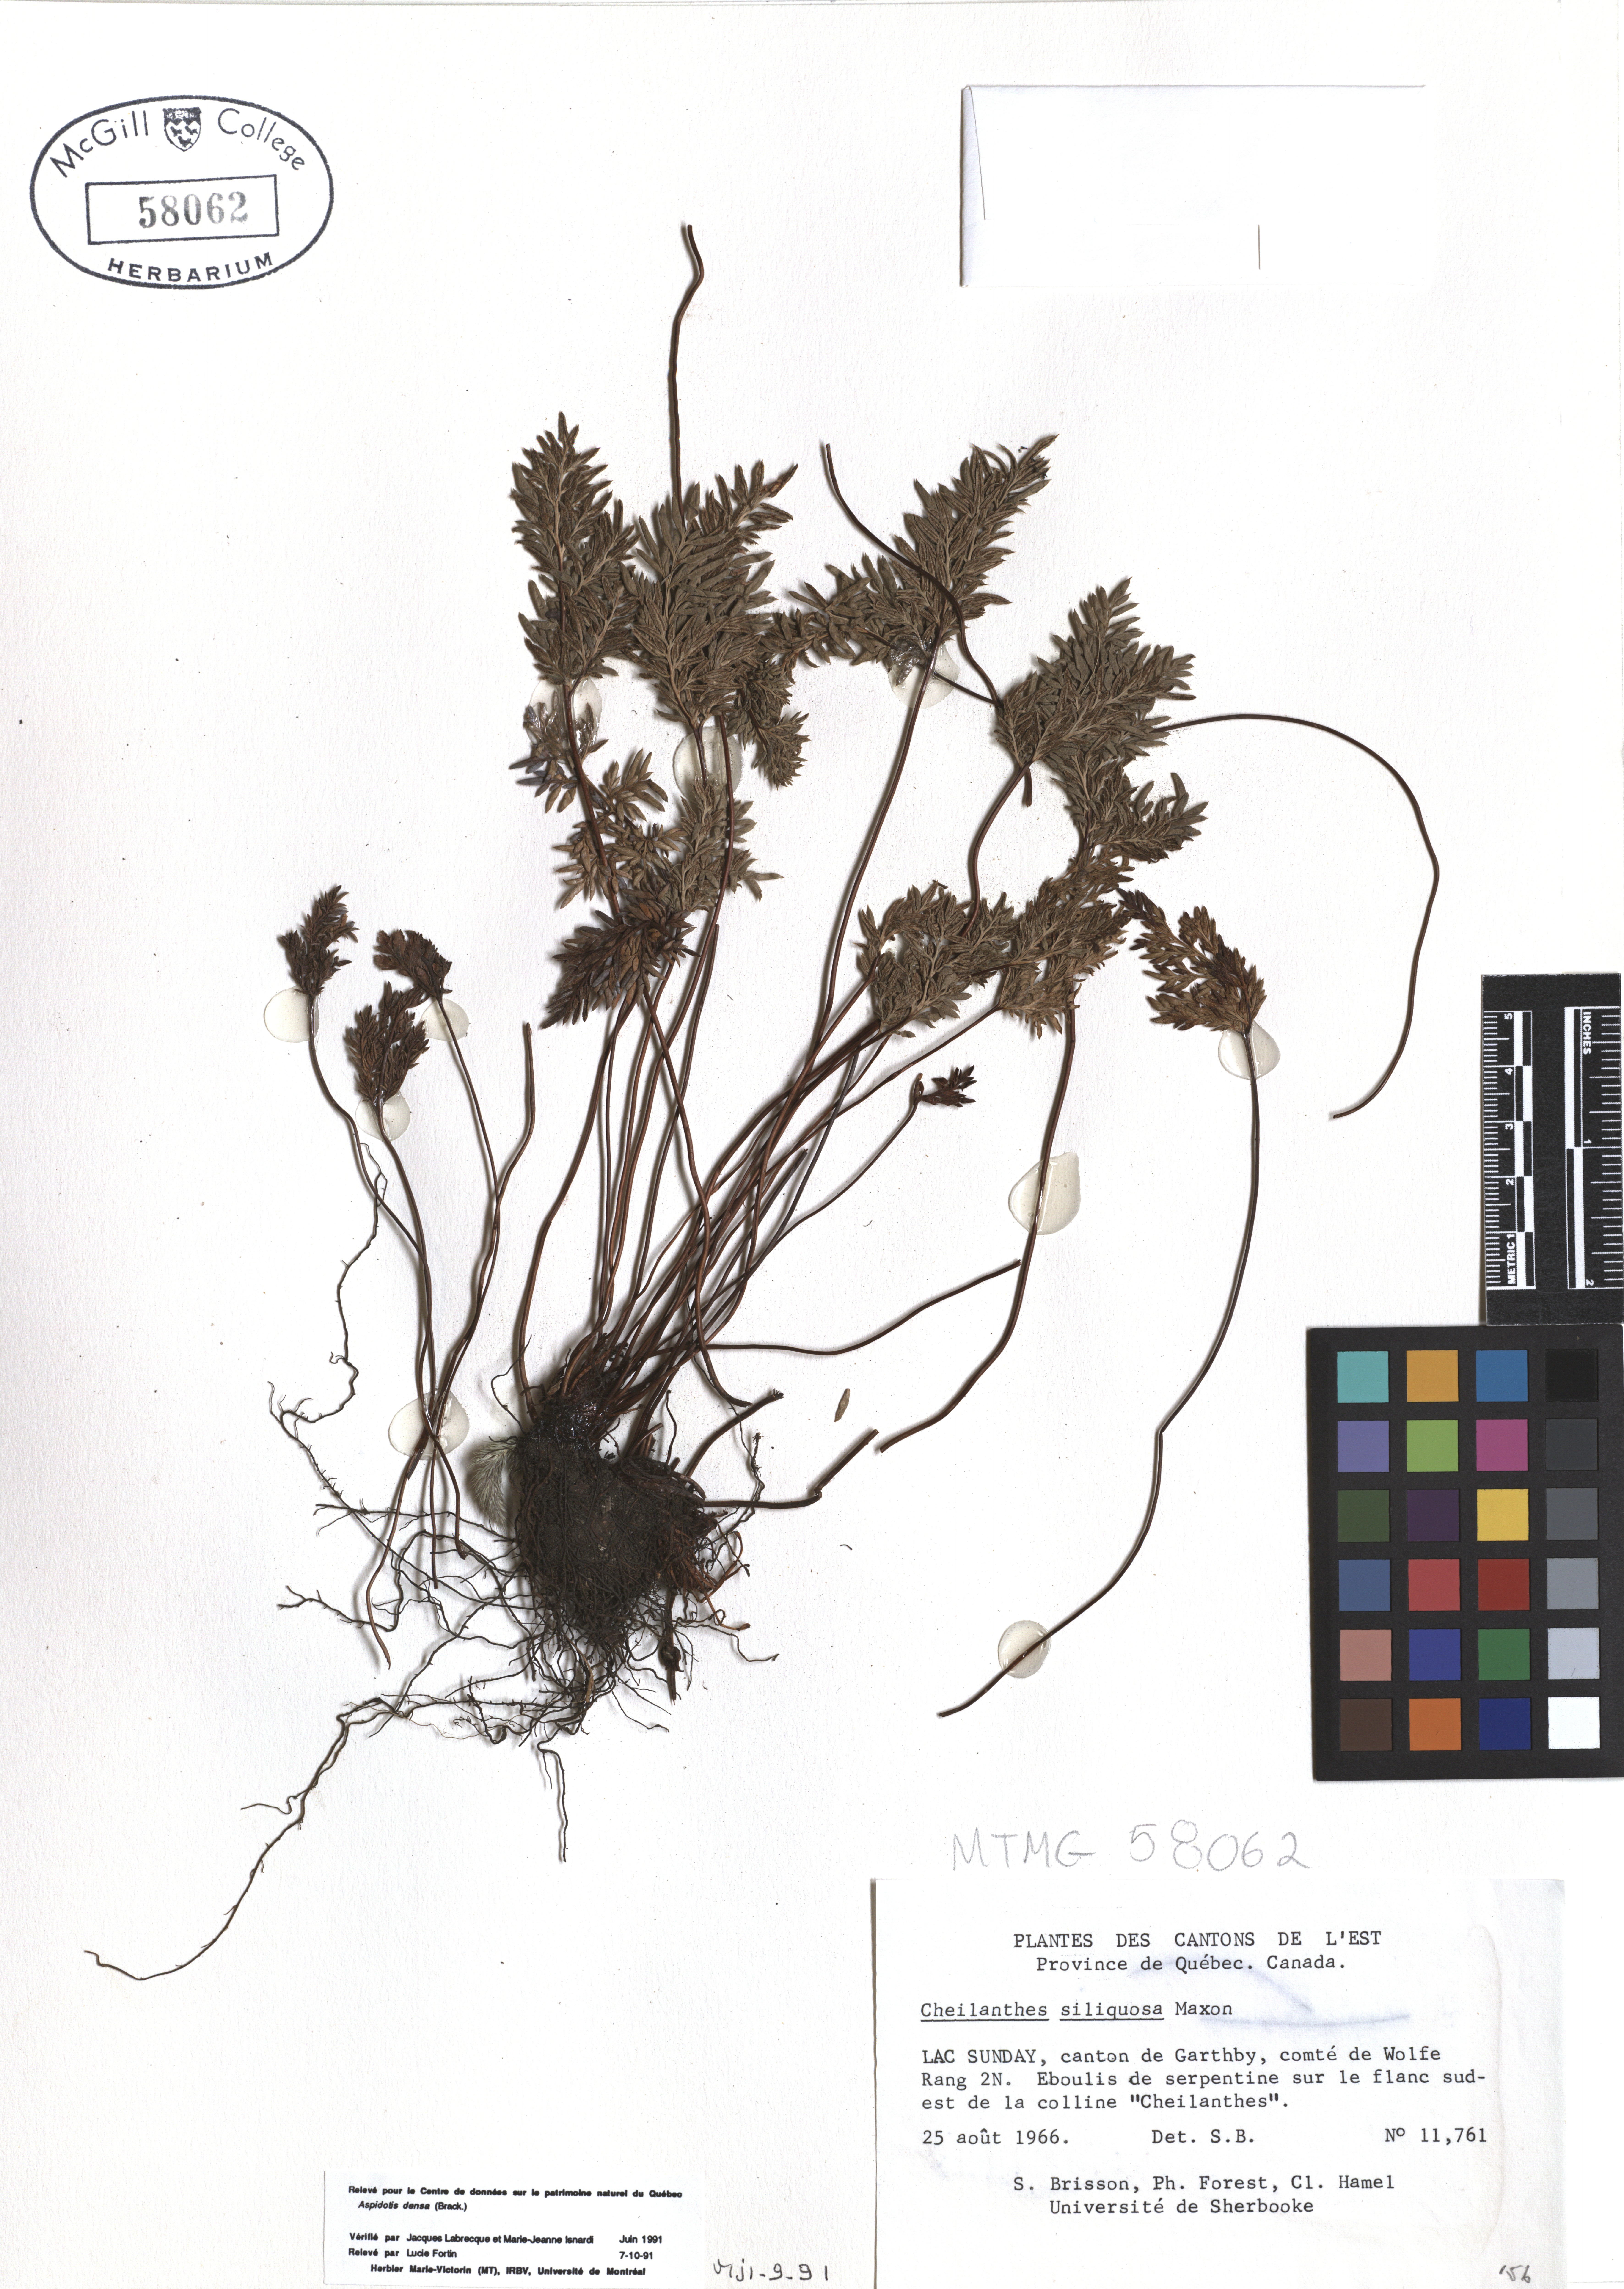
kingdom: Plantae
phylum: Tracheophyta
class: Polypodiopsida
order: Polypodiales
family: Pteridaceae
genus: Aspidotis
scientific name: Aspidotis densa
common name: Indian's dream
